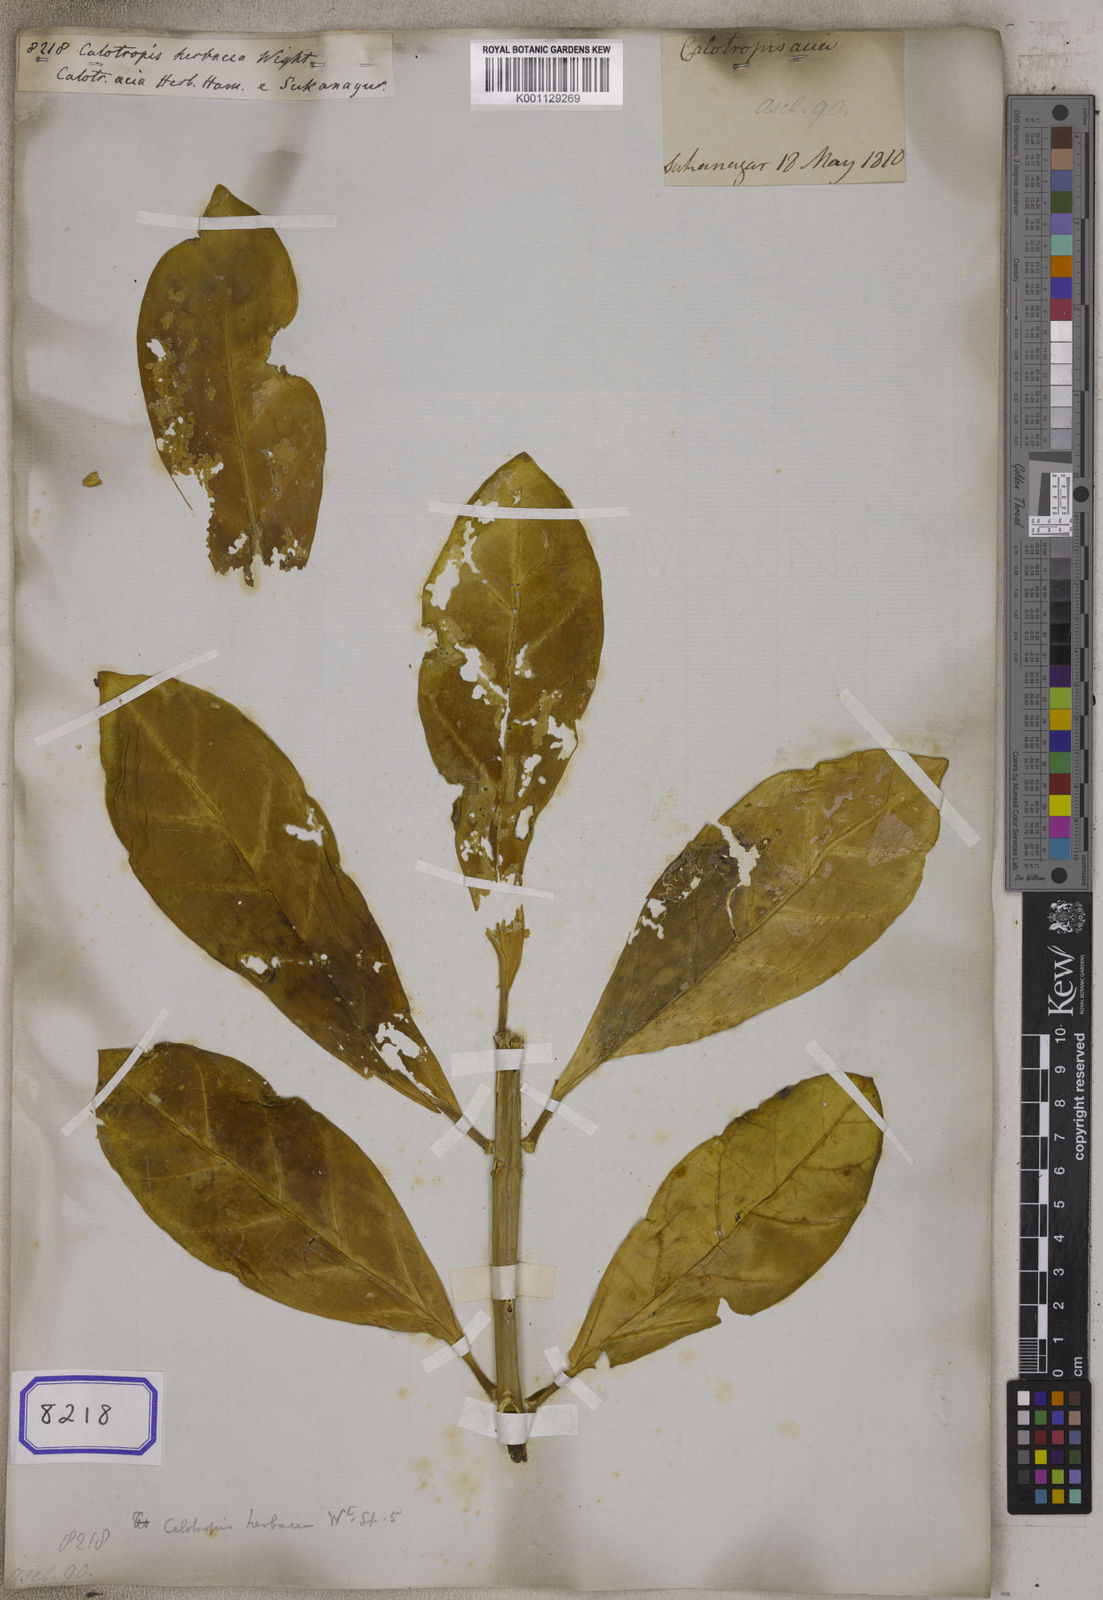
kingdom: Plantae
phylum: Tracheophyta
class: Magnoliopsida
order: Gentianales
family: Apocynaceae
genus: Calotropis
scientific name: Calotropis acia
